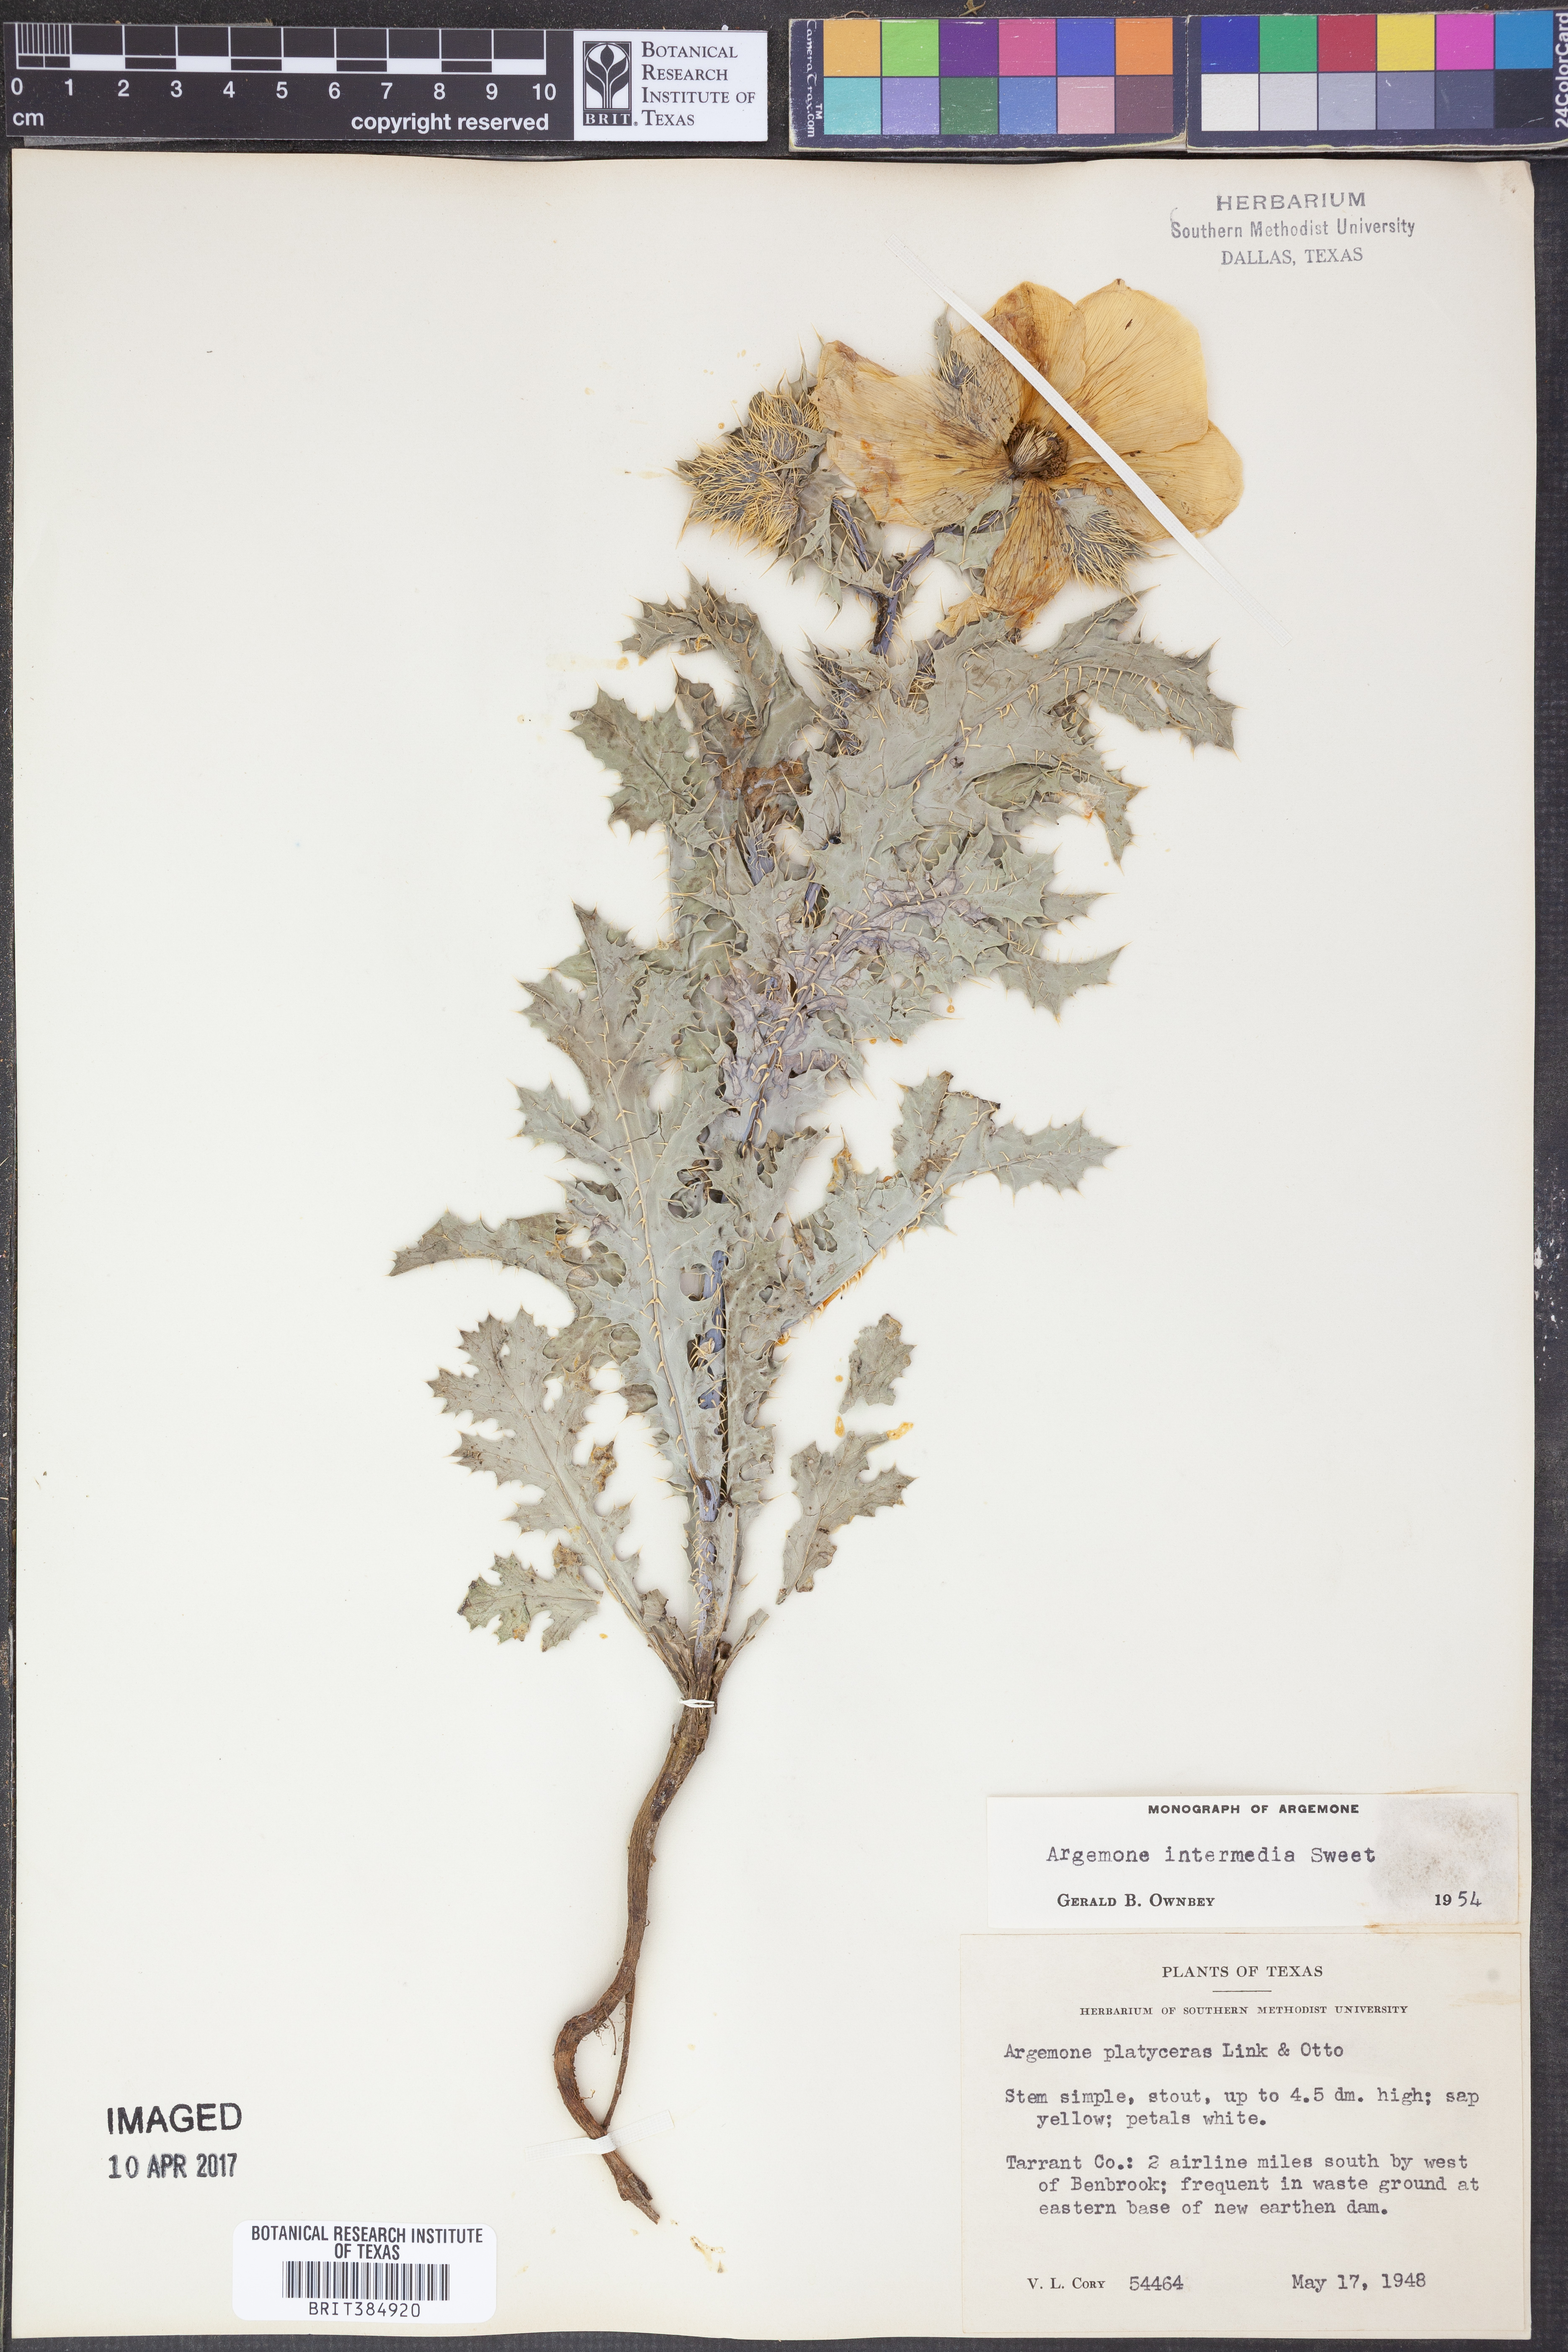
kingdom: Plantae
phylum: Tracheophyta
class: Magnoliopsida
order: Ranunculales
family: Papaveraceae
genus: Argemone
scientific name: Argemone intermedia
